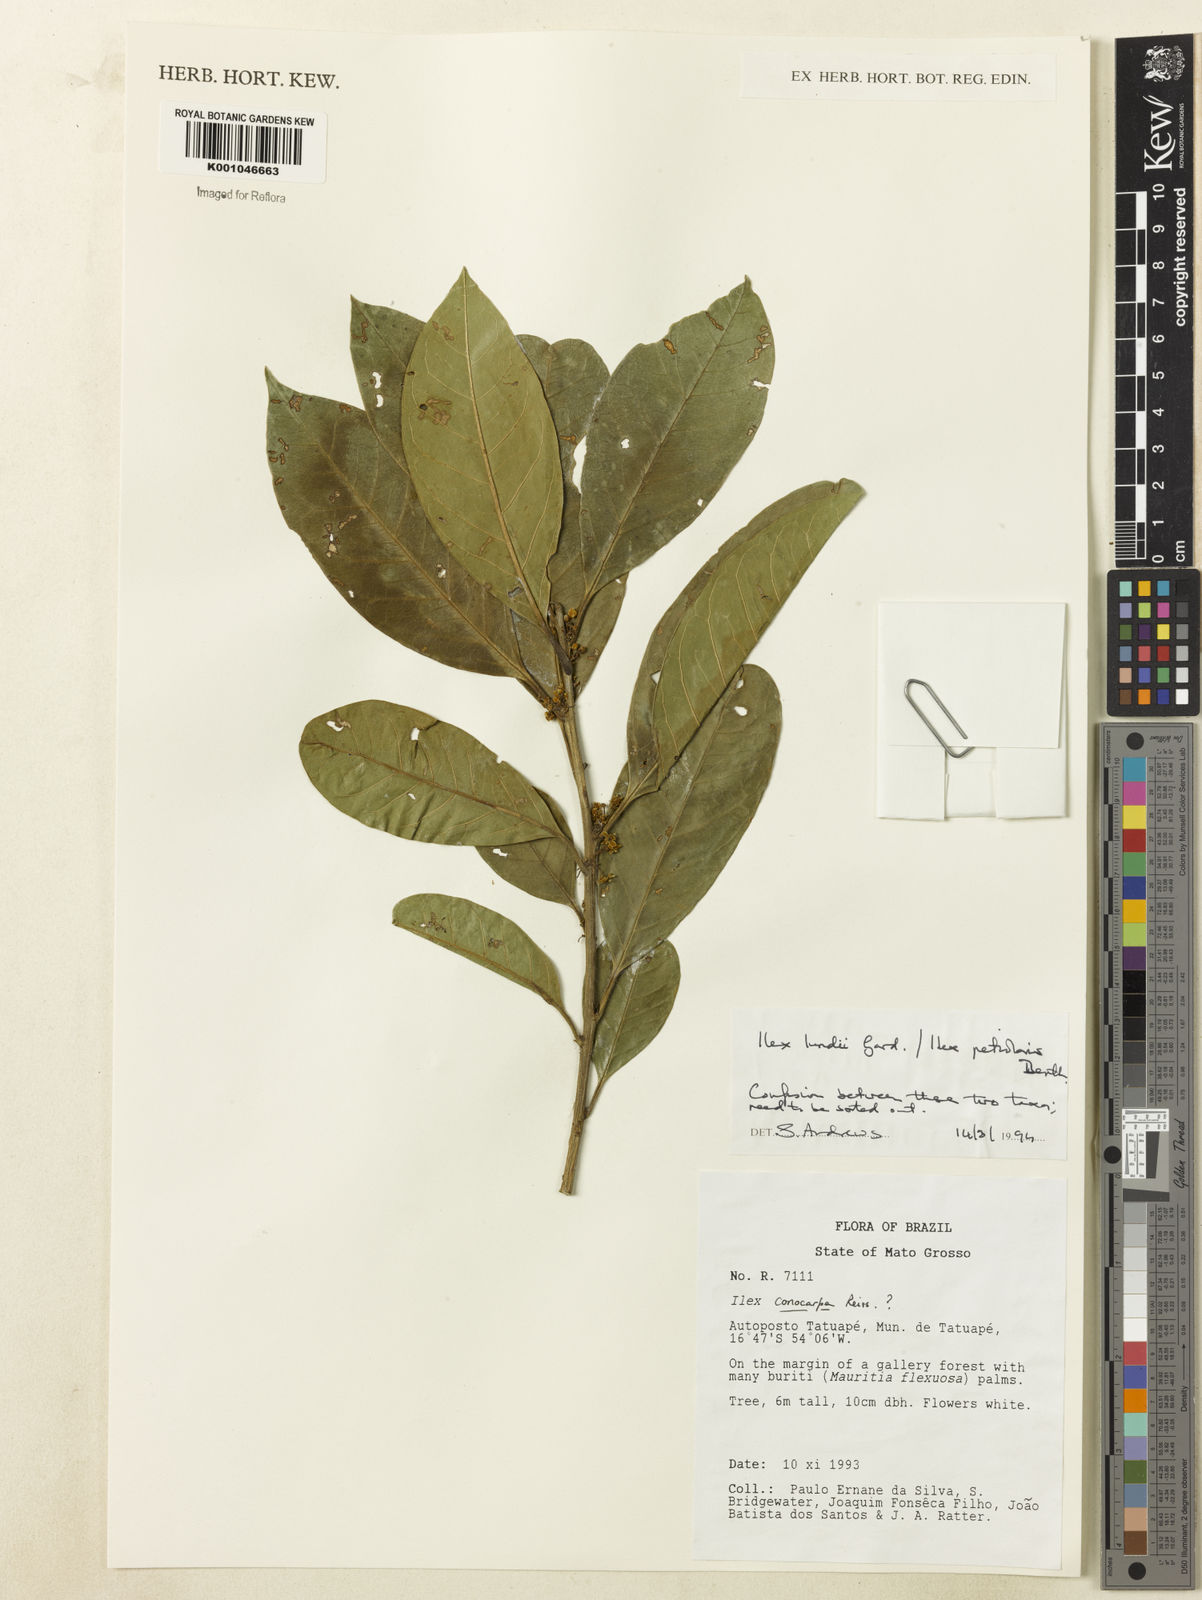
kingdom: Plantae
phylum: Tracheophyta
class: Magnoliopsida
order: Aquifoliales
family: Aquifoliaceae
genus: Ilex
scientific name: Ilex lundii
